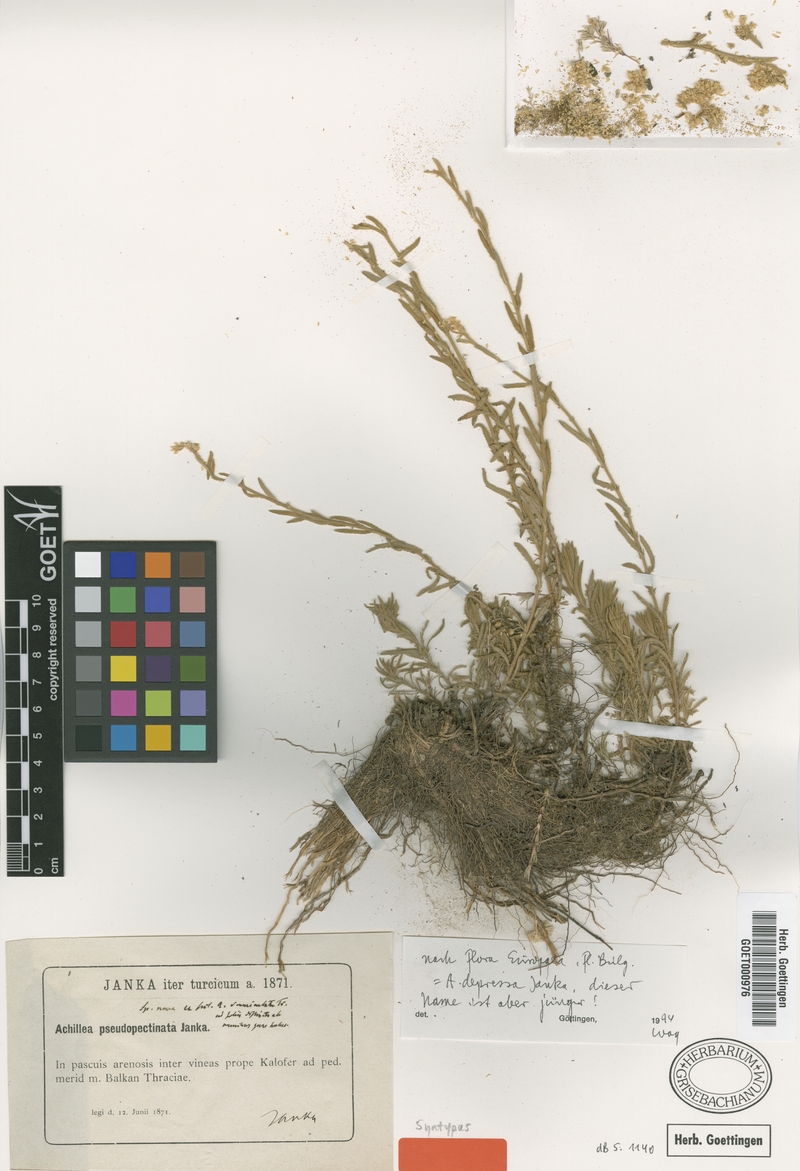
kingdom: Plantae
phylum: Tracheophyta
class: Magnoliopsida
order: Asterales
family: Asteraceae
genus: Achillea
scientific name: Achillea pseudopectinata
